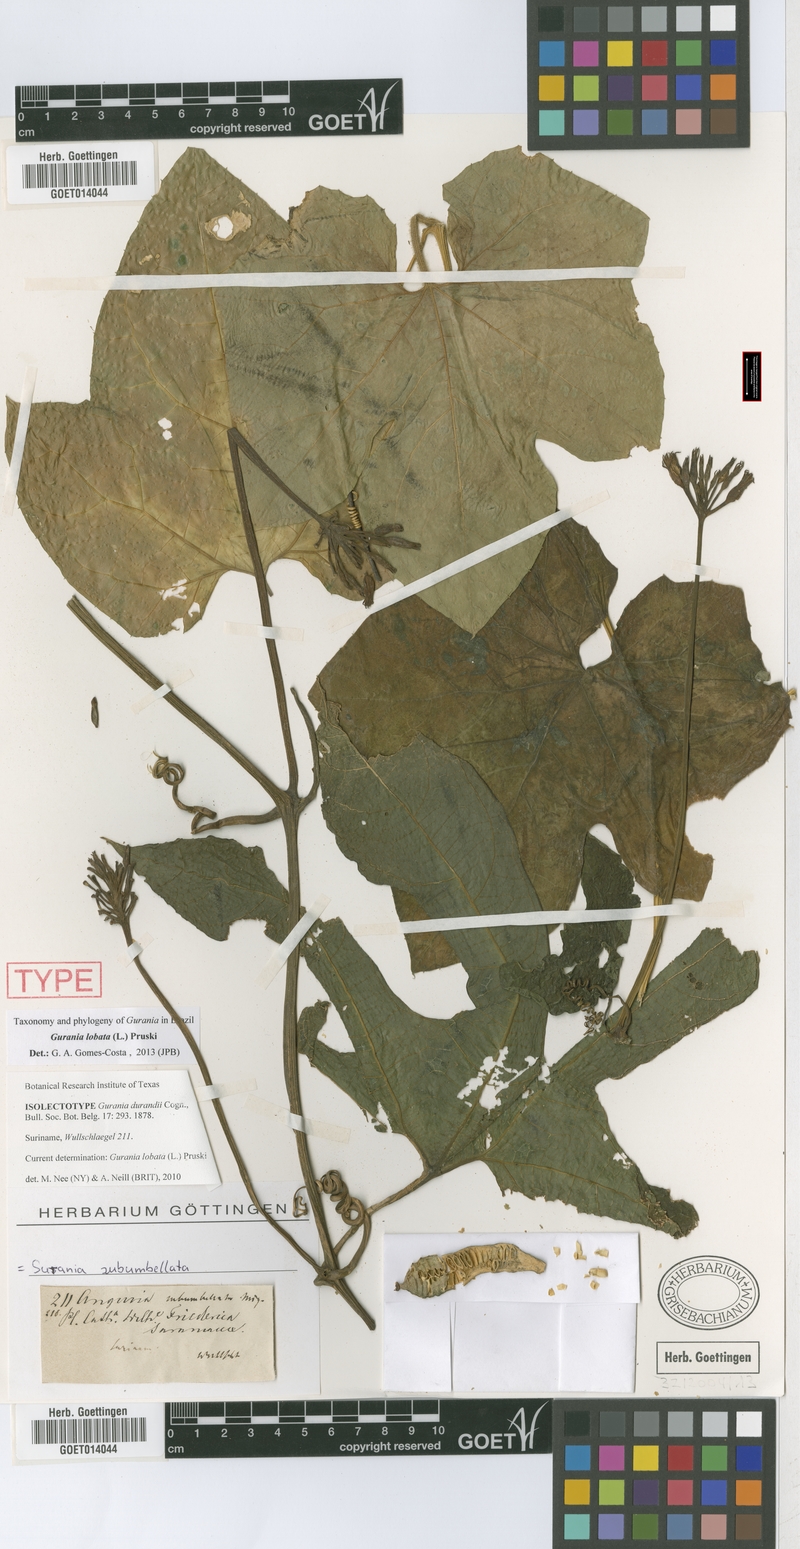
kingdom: Plantae
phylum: Tracheophyta
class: Magnoliopsida
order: Cucurbitales
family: Cucurbitaceae
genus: Gurania
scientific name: Gurania lobata
